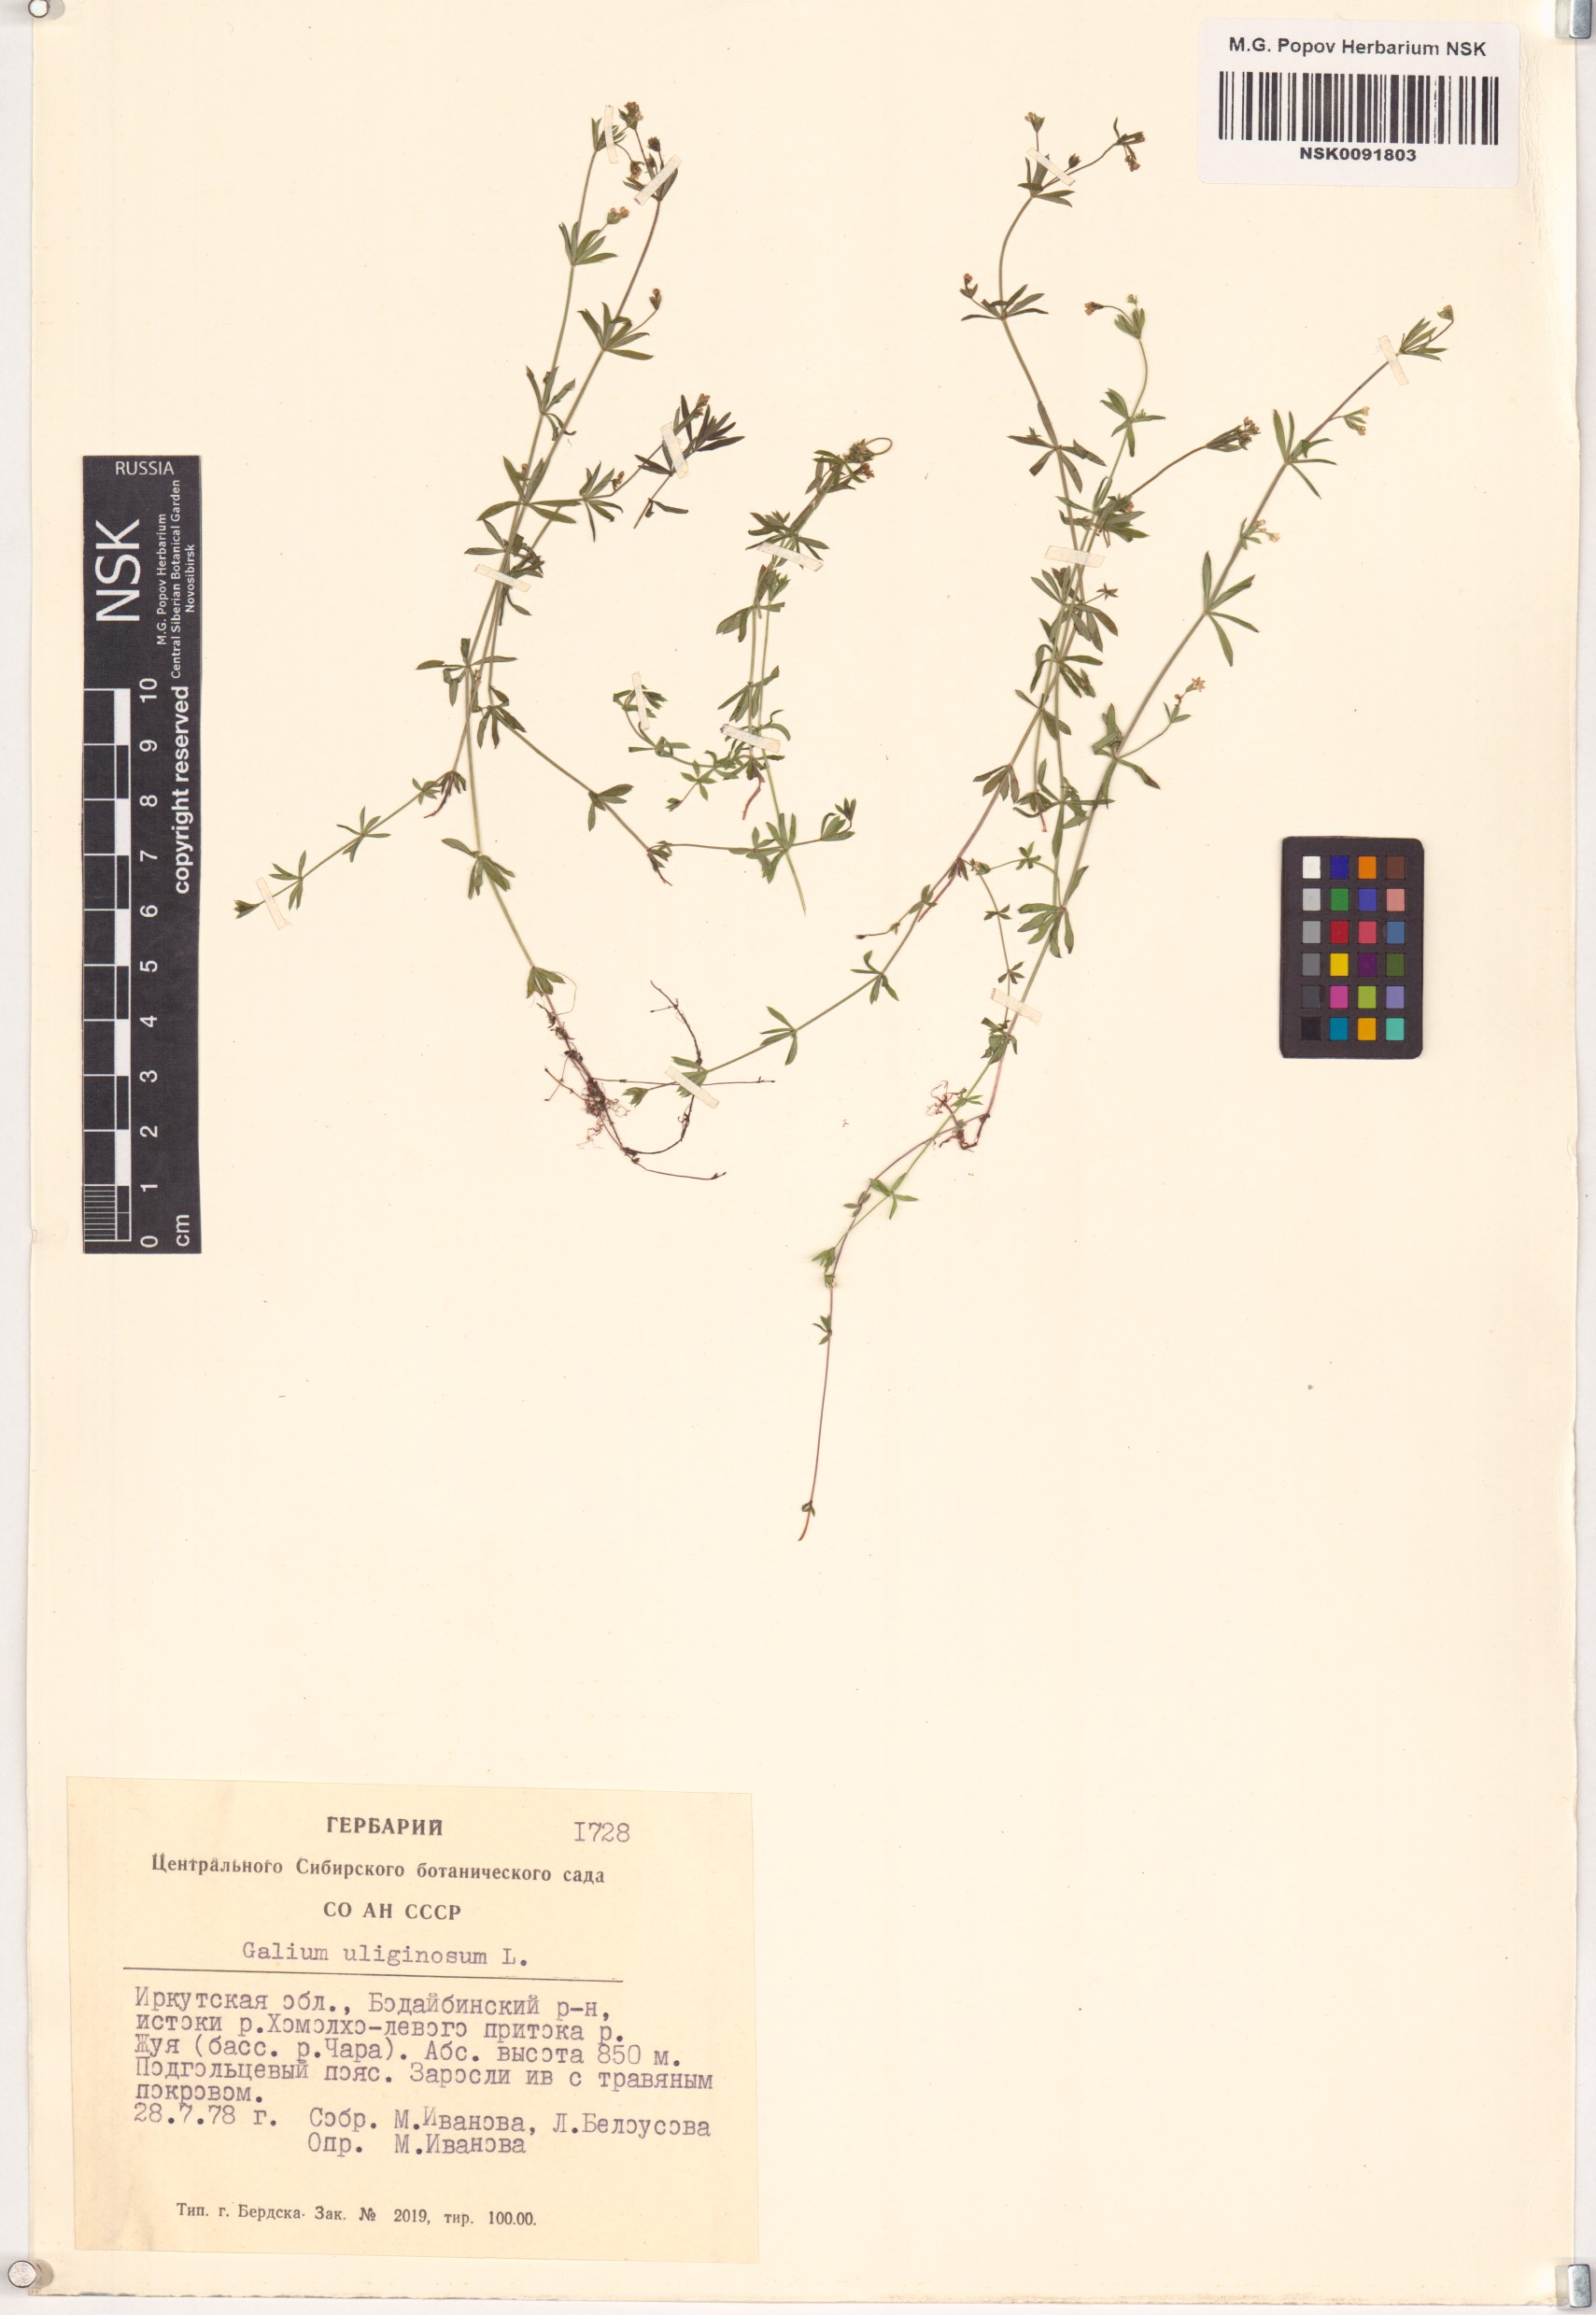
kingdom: Plantae
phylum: Tracheophyta
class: Magnoliopsida
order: Gentianales
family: Rubiaceae
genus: Galium
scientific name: Galium uliginosum
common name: Fen bedstraw
